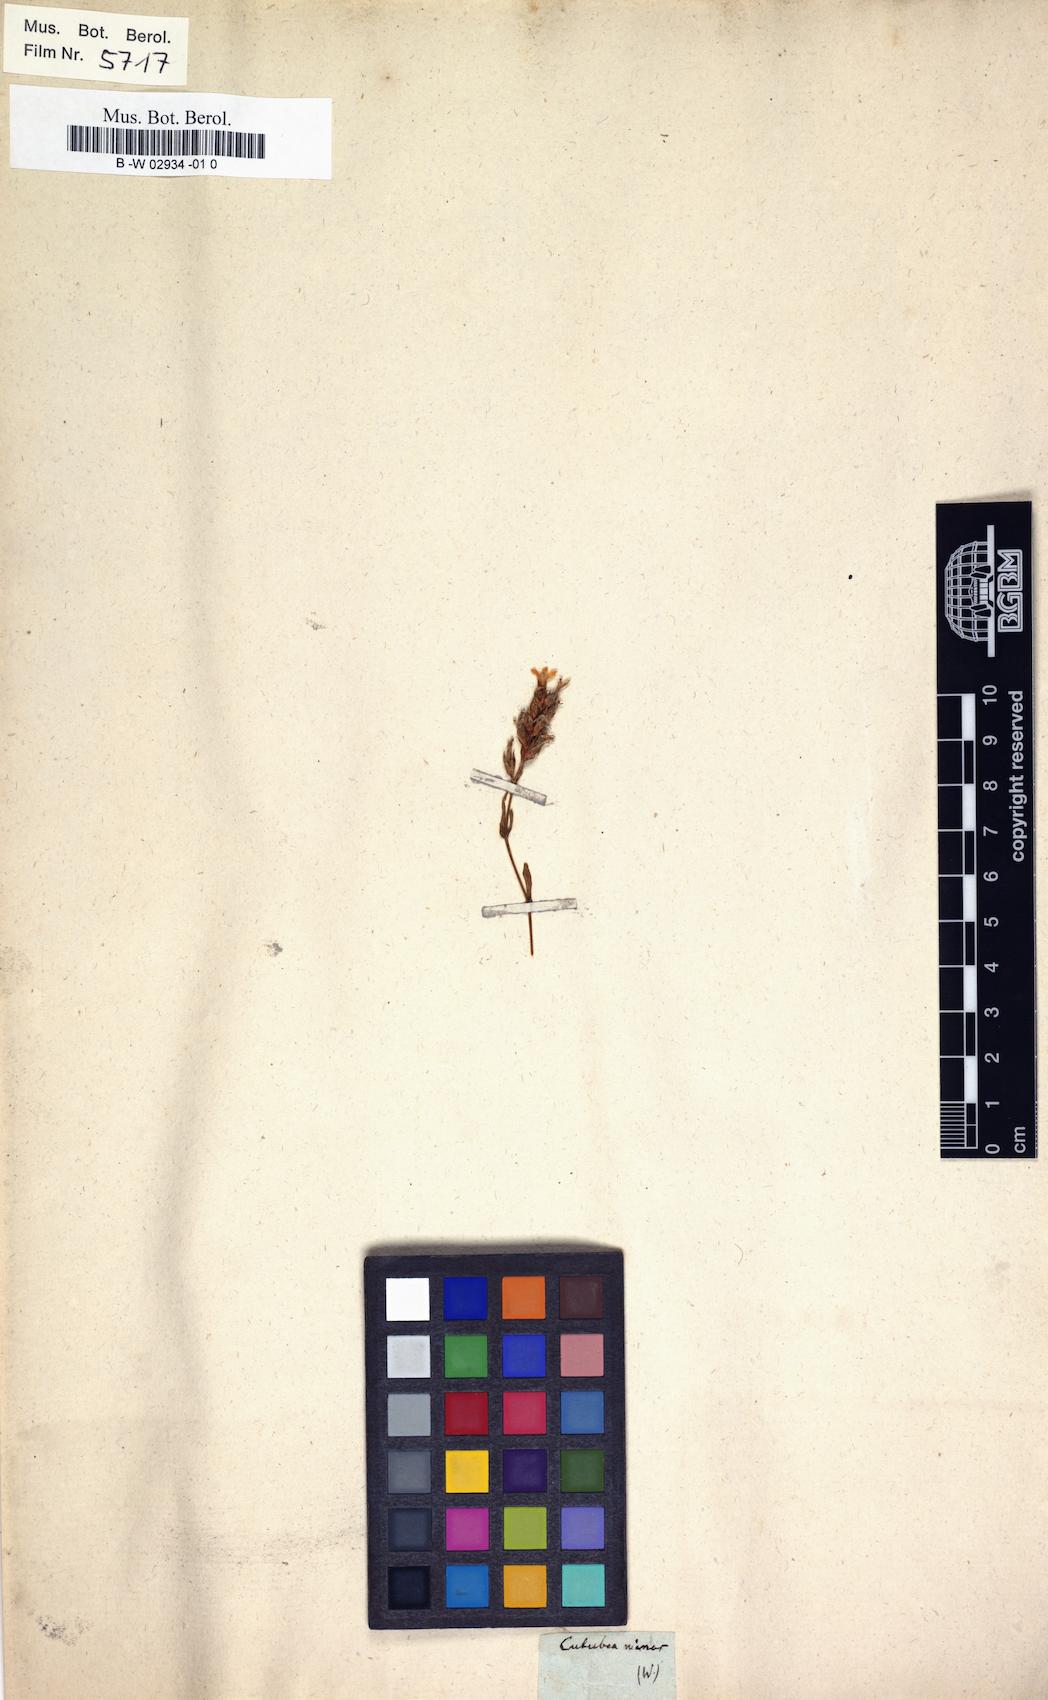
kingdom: Plantae
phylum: Tracheophyta
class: Magnoliopsida
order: Gentianales
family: Gentianaceae
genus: Cutubea
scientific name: Cutubea
